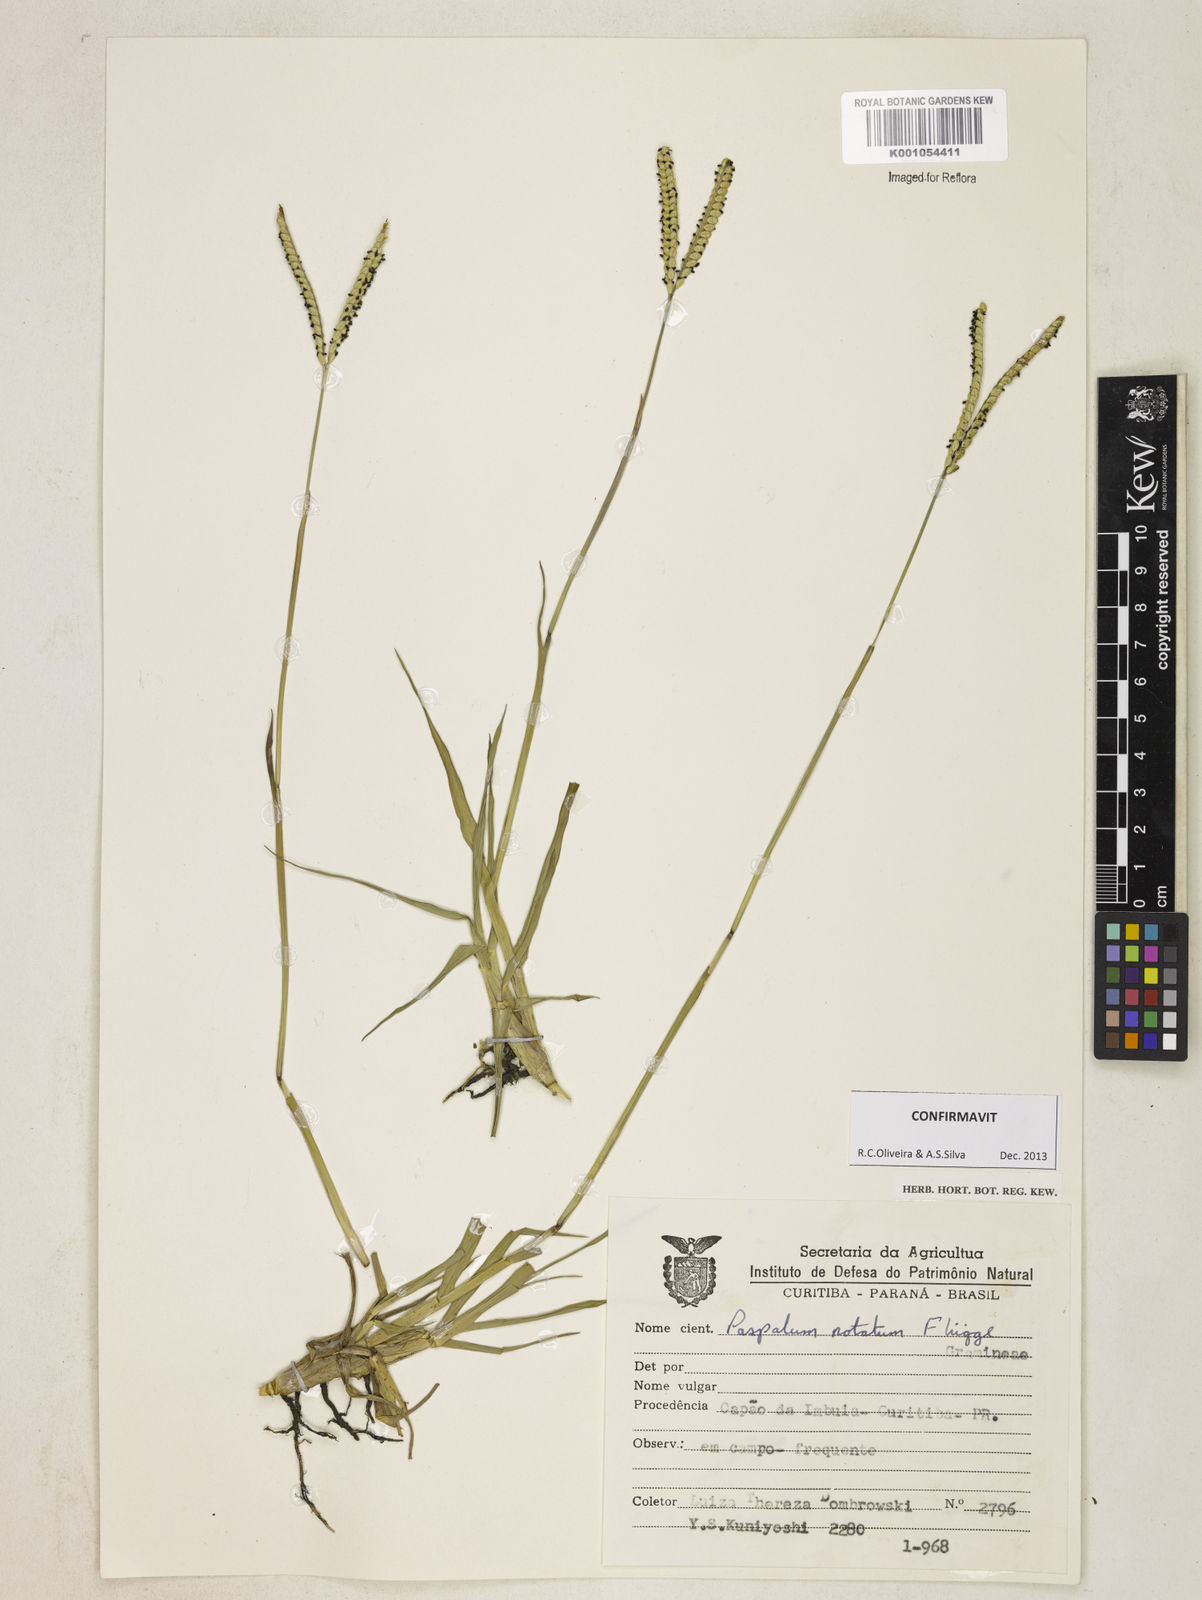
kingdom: Plantae
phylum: Tracheophyta
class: Liliopsida
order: Poales
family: Poaceae
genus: Paspalum
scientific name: Paspalum
